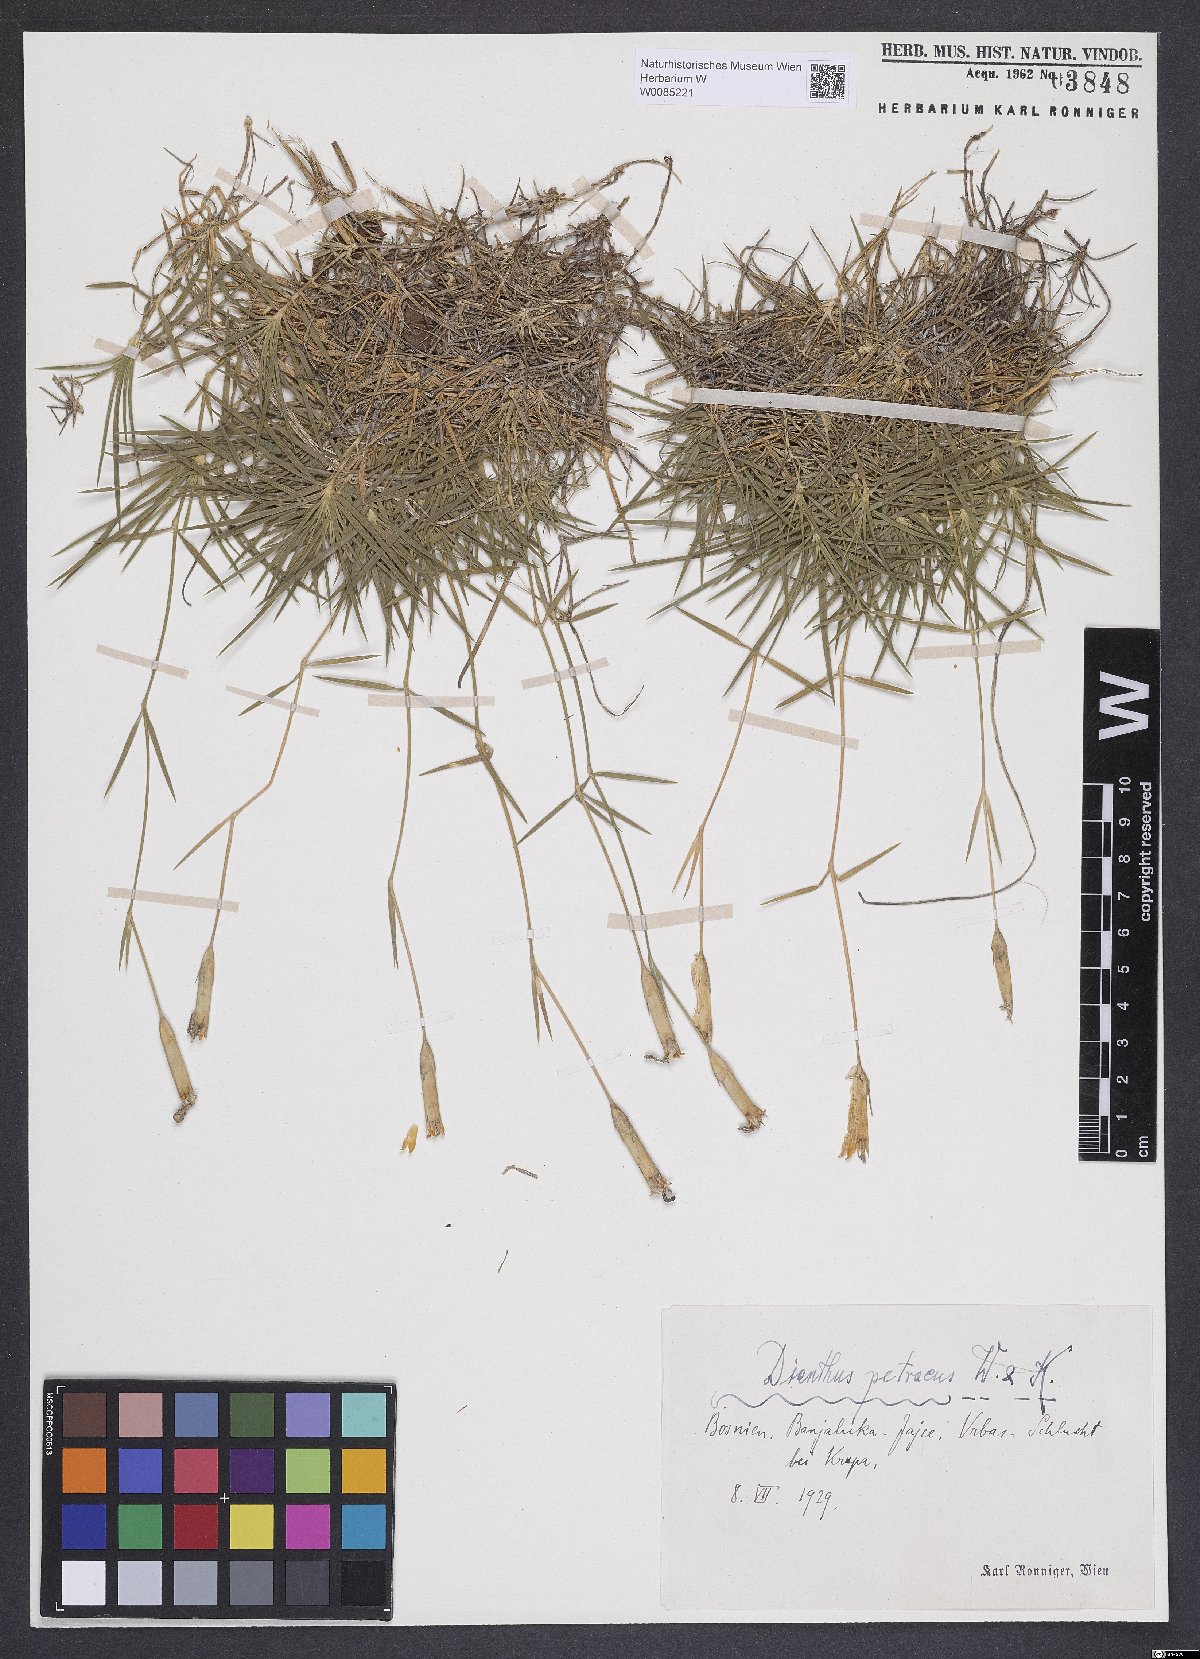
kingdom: Plantae
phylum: Tracheophyta
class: Magnoliopsida
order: Caryophyllales
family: Caryophyllaceae
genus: Dianthus
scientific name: Dianthus petraeus
